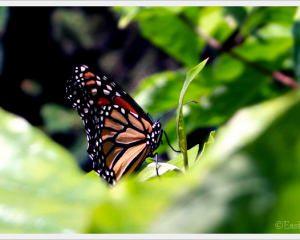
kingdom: Animalia
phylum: Arthropoda
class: Insecta
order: Lepidoptera
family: Nymphalidae
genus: Danaus
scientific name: Danaus plexippus
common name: Monarch
